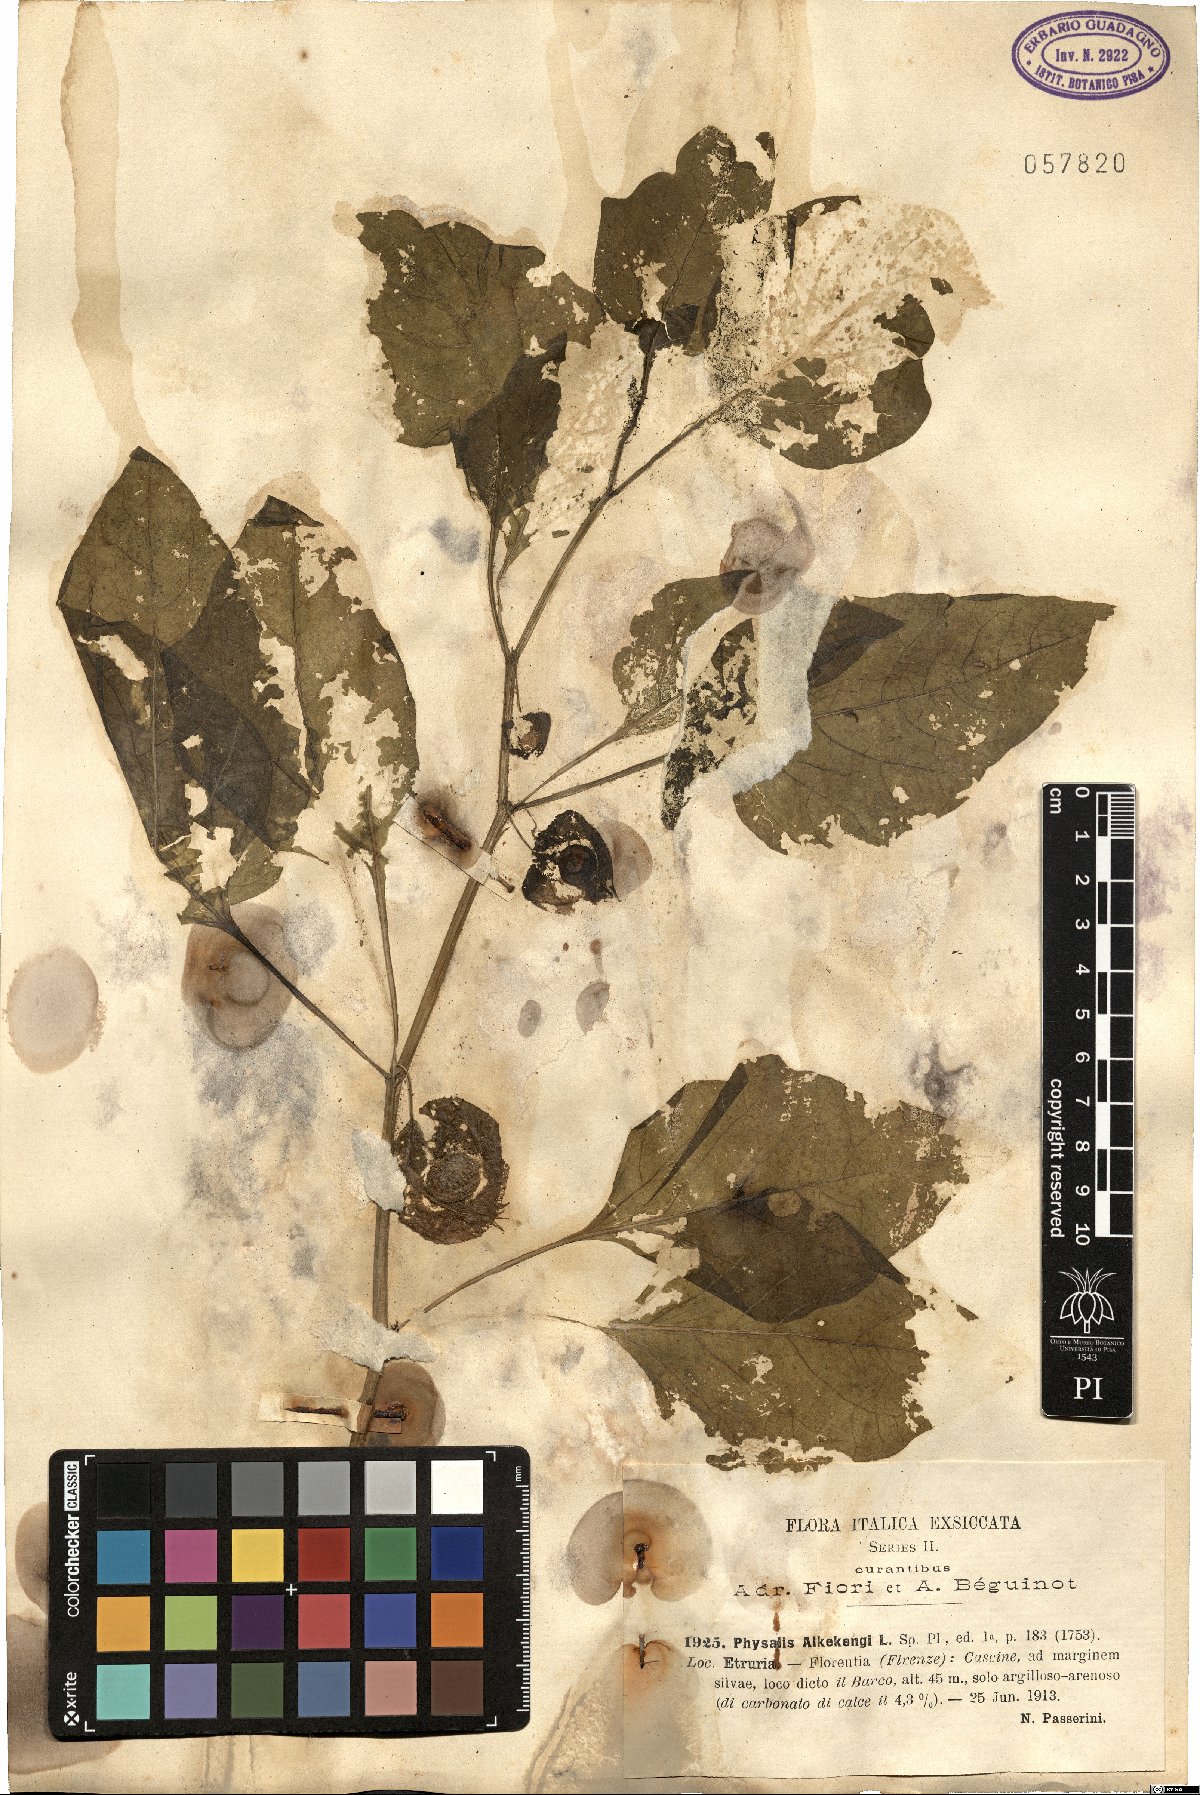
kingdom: Plantae
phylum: Tracheophyta
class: Magnoliopsida
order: Solanales
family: Solanaceae
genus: Alkekengi
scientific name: Alkekengi officinarum
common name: Japanese-lantern
